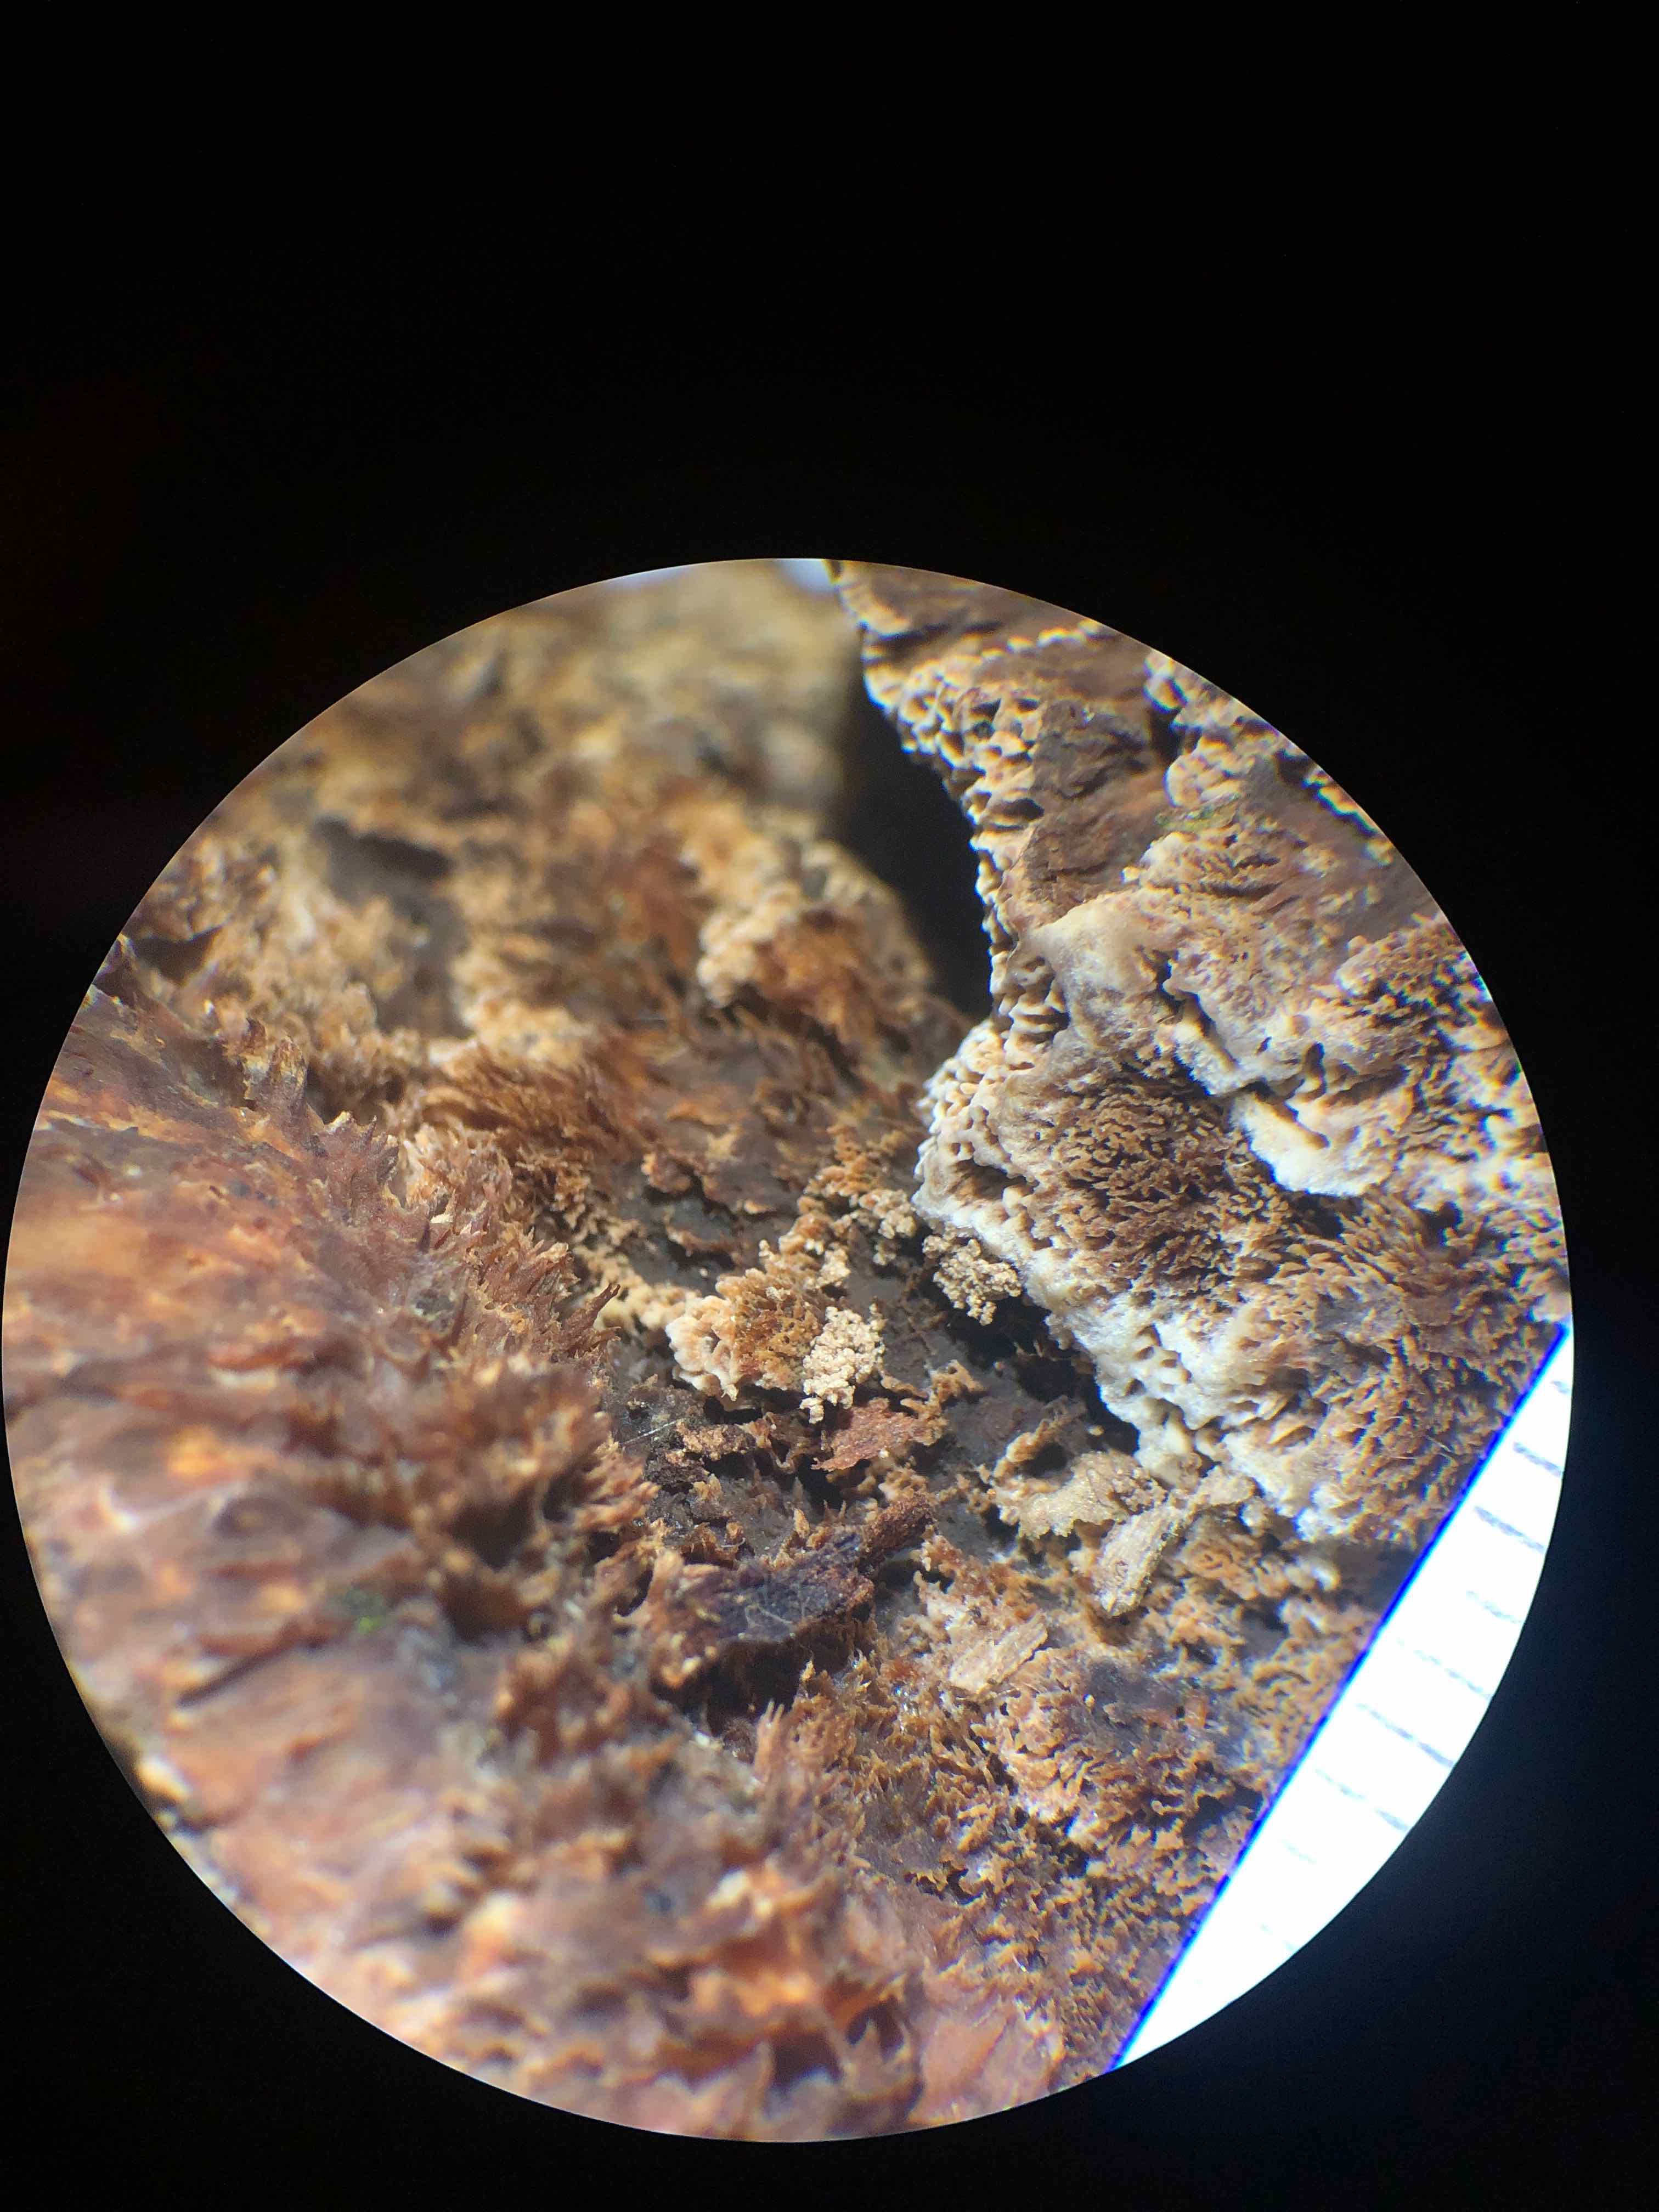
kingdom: Fungi
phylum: Basidiomycota
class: Agaricomycetes
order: Hymenochaetales
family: Hymenochaetaceae
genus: Mensularia
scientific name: Mensularia nodulosa
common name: bøge-spejlporesvamp
